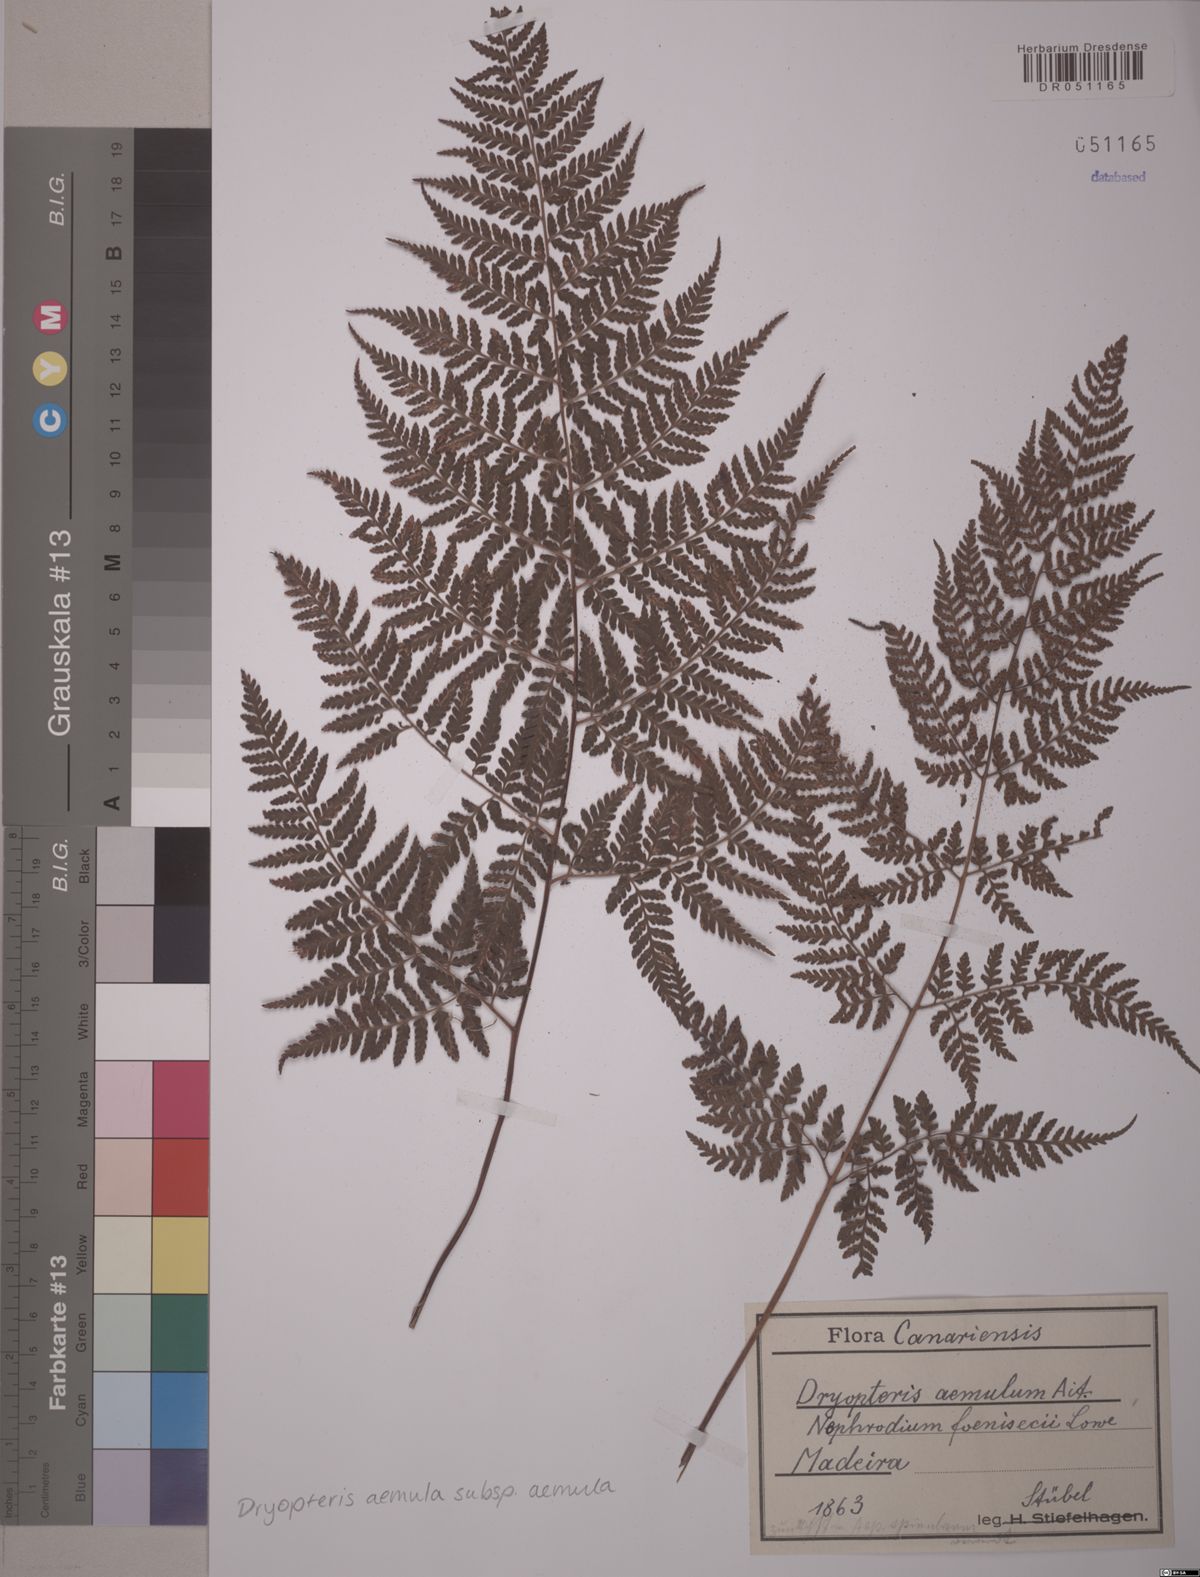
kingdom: Plantae
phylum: Tracheophyta
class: Polypodiopsida
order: Polypodiales
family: Dryopteridaceae
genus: Dryopteris
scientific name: Dryopteris aemula
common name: Hay-scented buckler-fern
